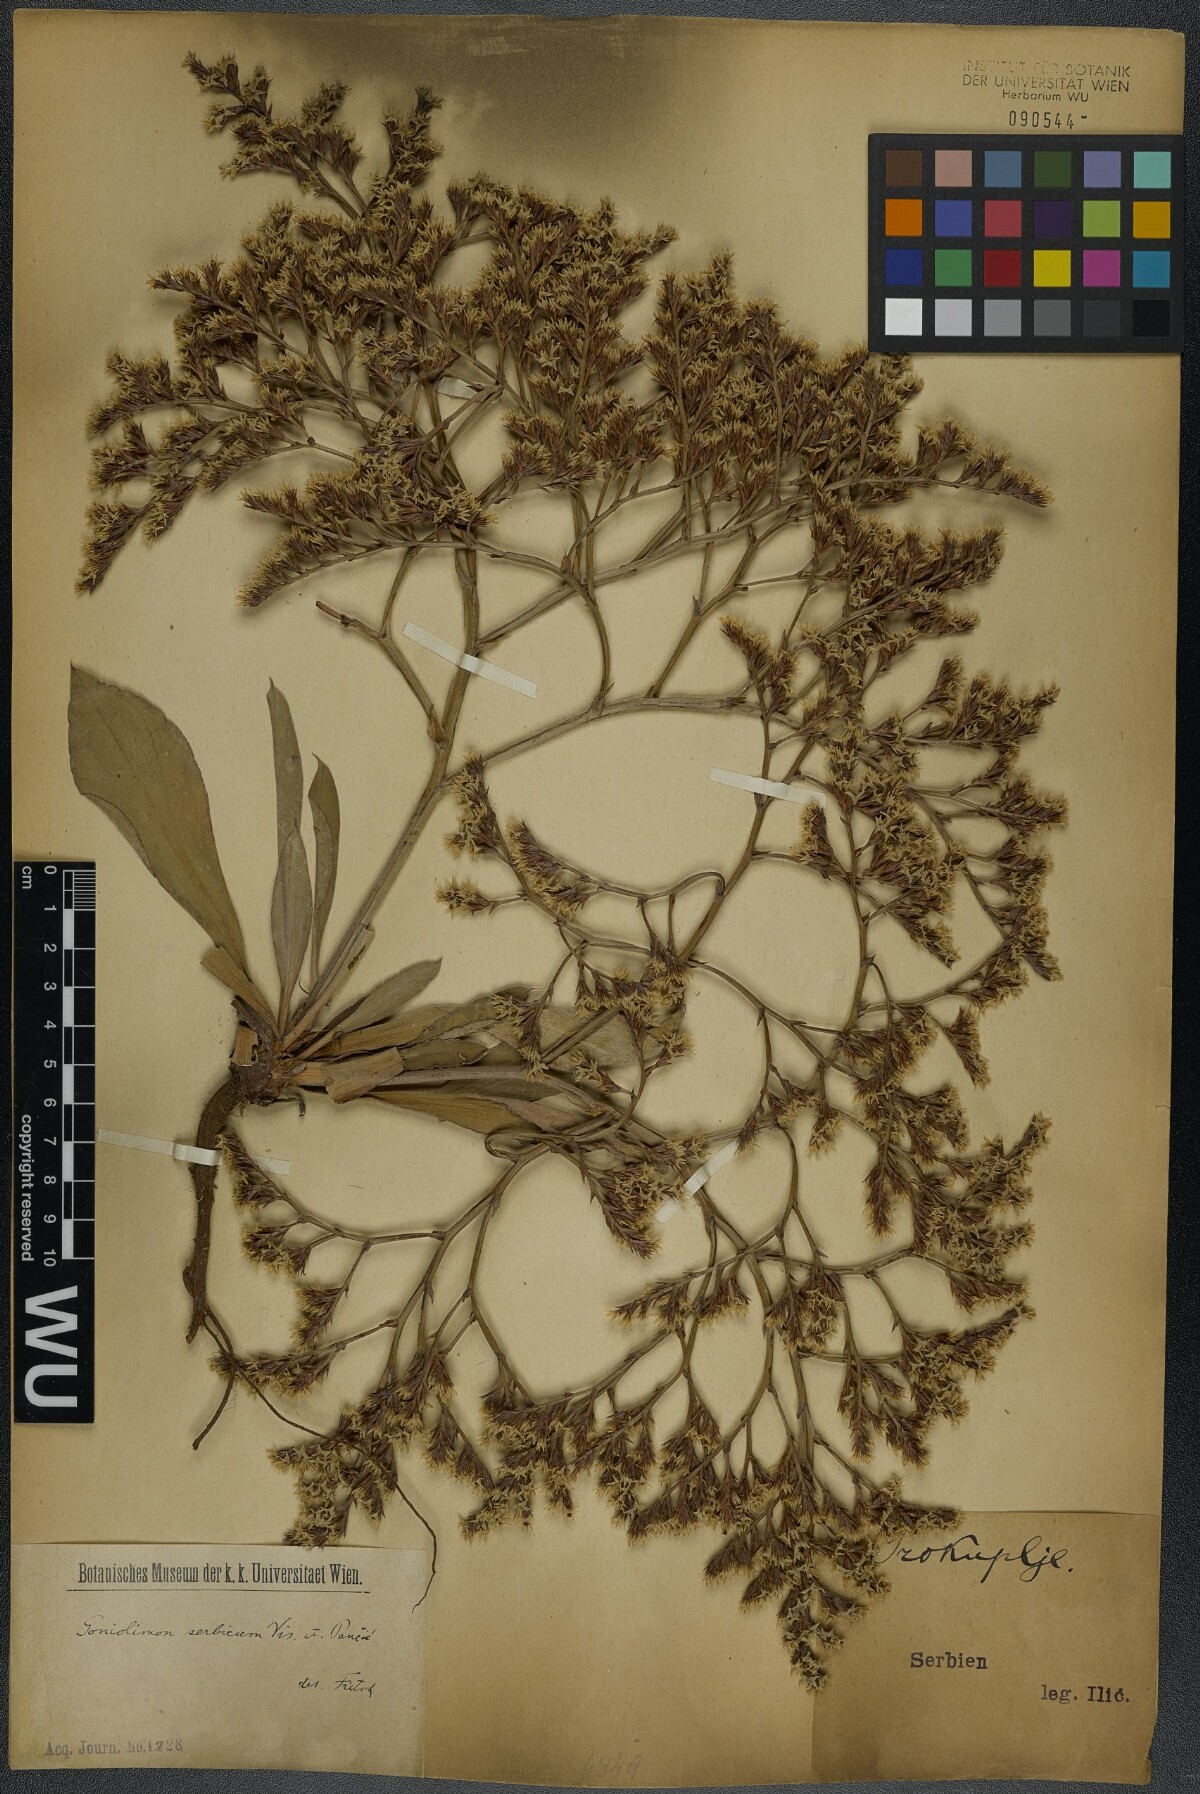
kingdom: Plantae
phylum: Tracheophyta
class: Magnoliopsida
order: Caryophyllales
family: Plumbaginaceae
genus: Goniolimon
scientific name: Goniolimon incanum
